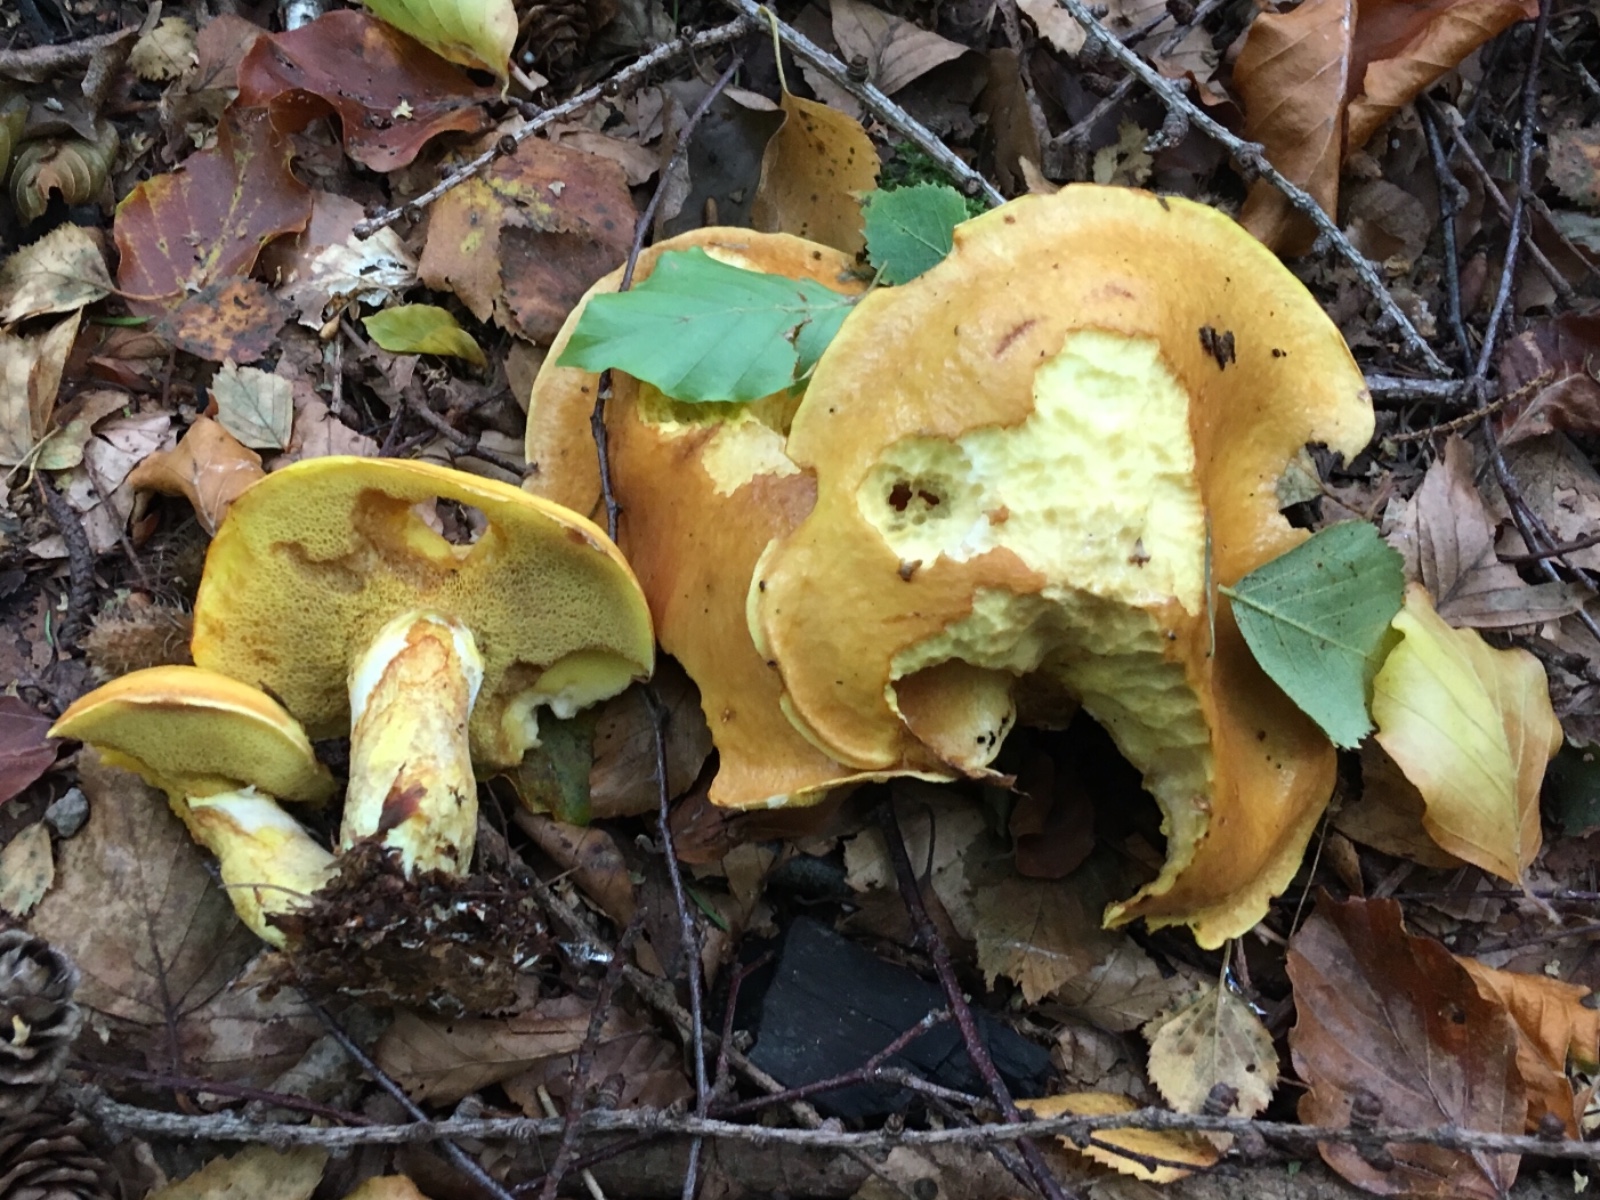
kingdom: Fungi
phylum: Basidiomycota
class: Agaricomycetes
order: Boletales
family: Suillaceae
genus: Suillus
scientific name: Suillus grevillei
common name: lærke-slimrørhat
